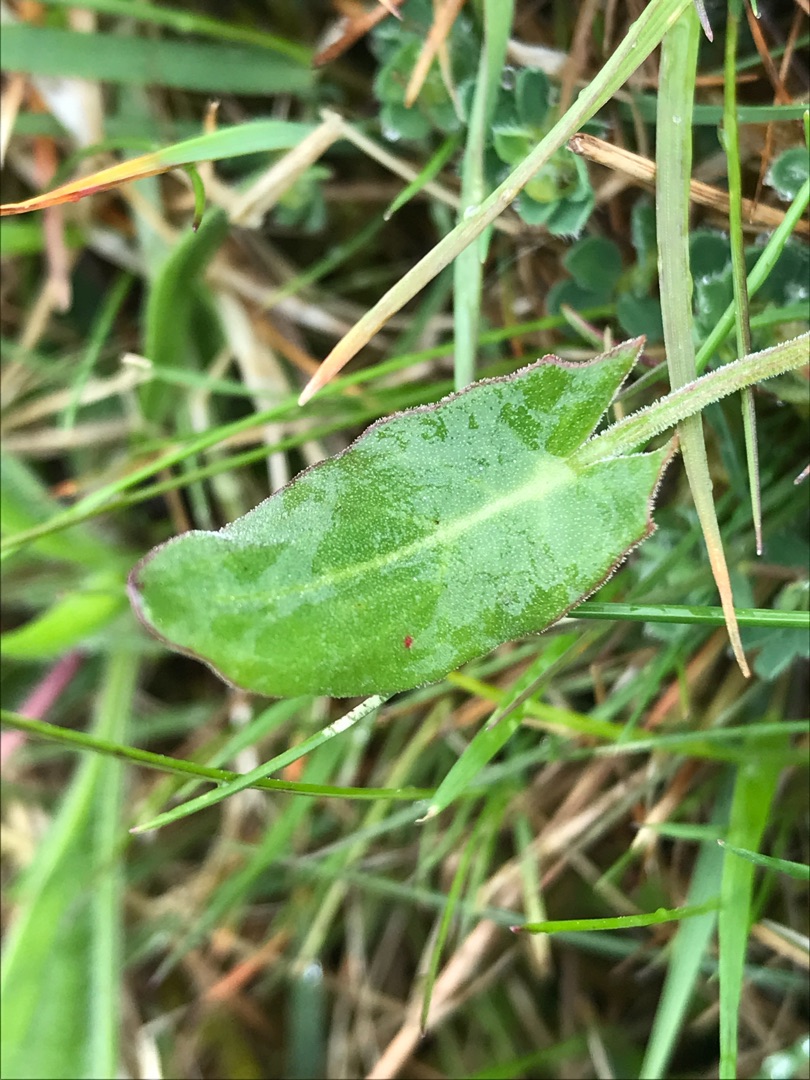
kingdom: Plantae
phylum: Tracheophyta
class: Magnoliopsida
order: Caryophyllales
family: Polygonaceae
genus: Rumex
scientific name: Rumex acetosa
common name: Almindelig syre
